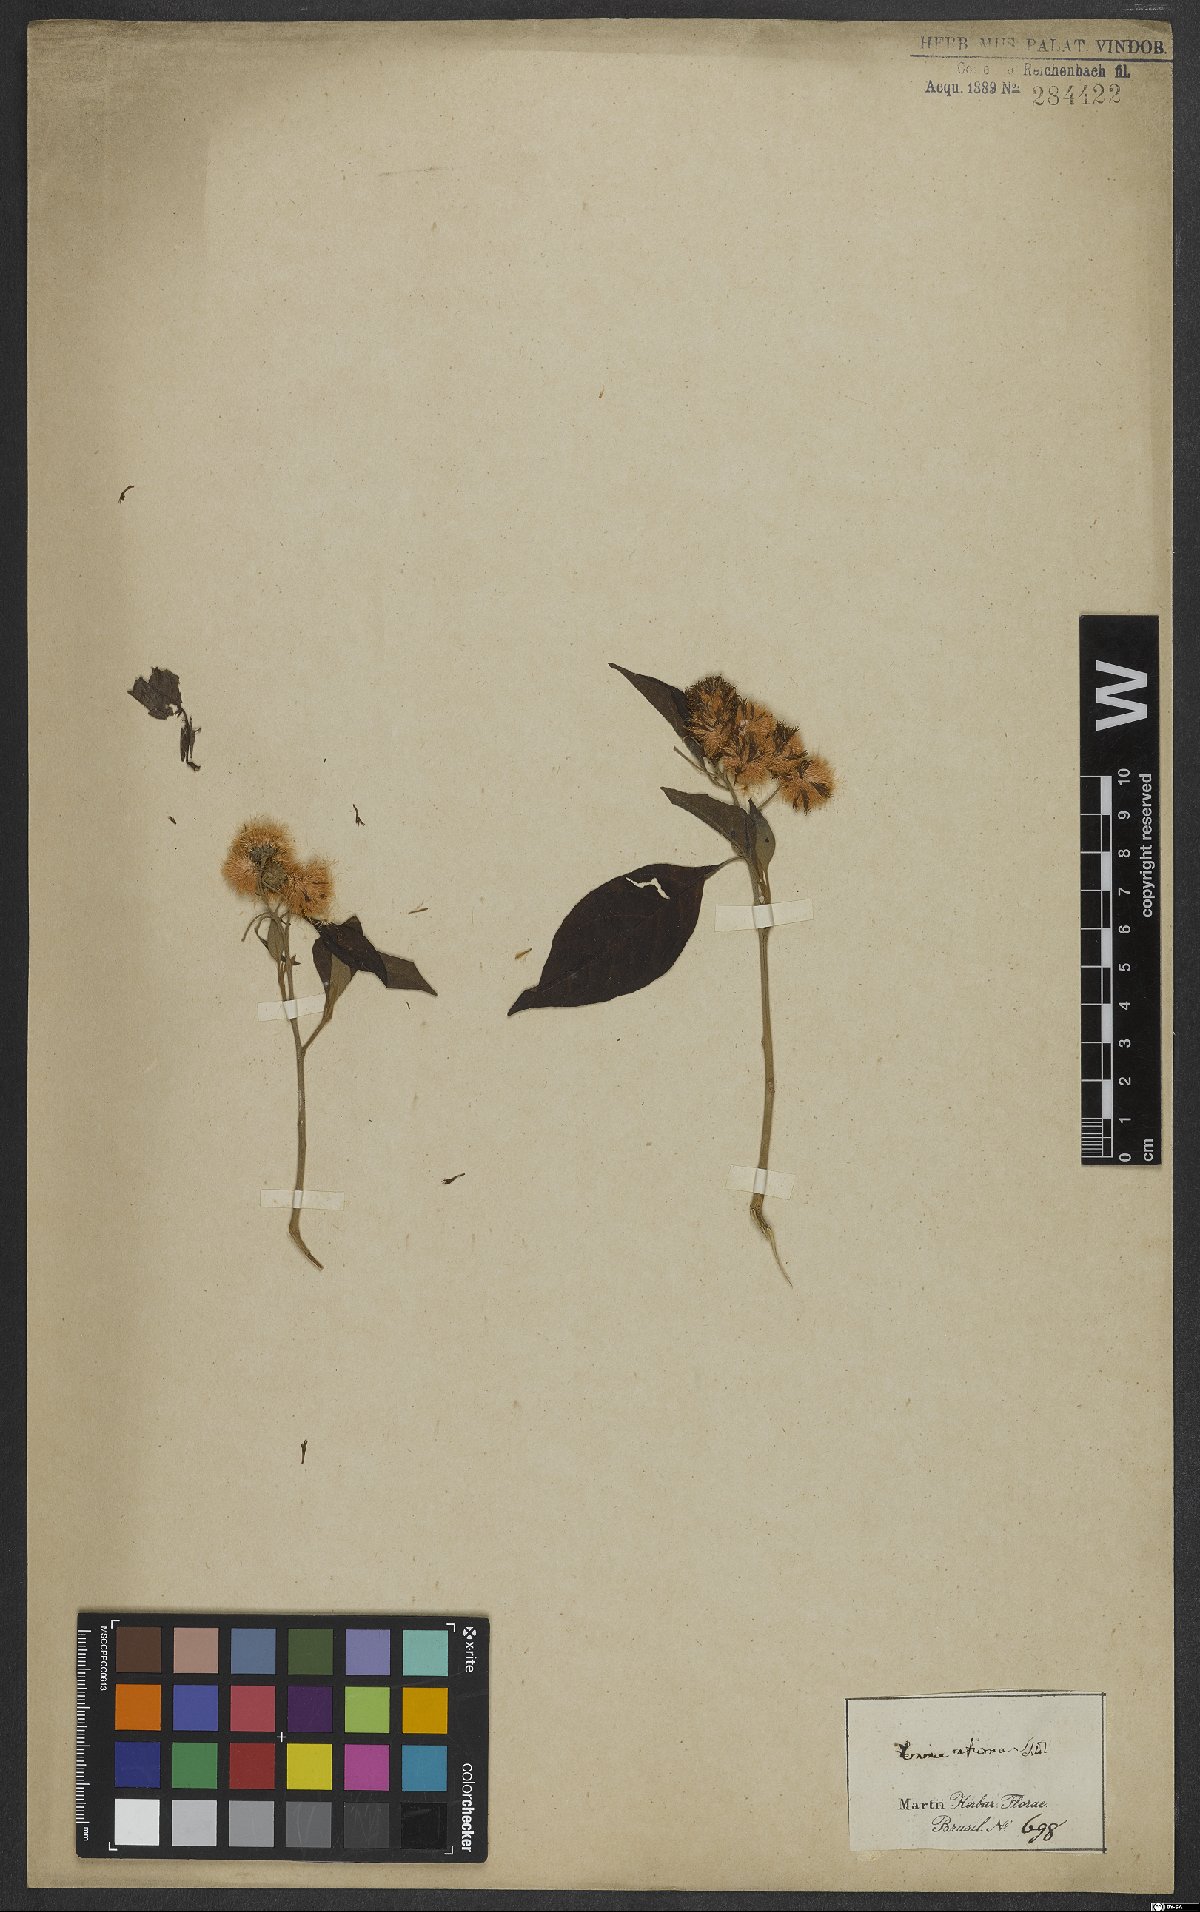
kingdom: Plantae
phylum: Tracheophyta
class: Magnoliopsida
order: Asterales
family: Asteraceae
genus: Vernonanthura
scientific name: Vernonanthura membranacea
